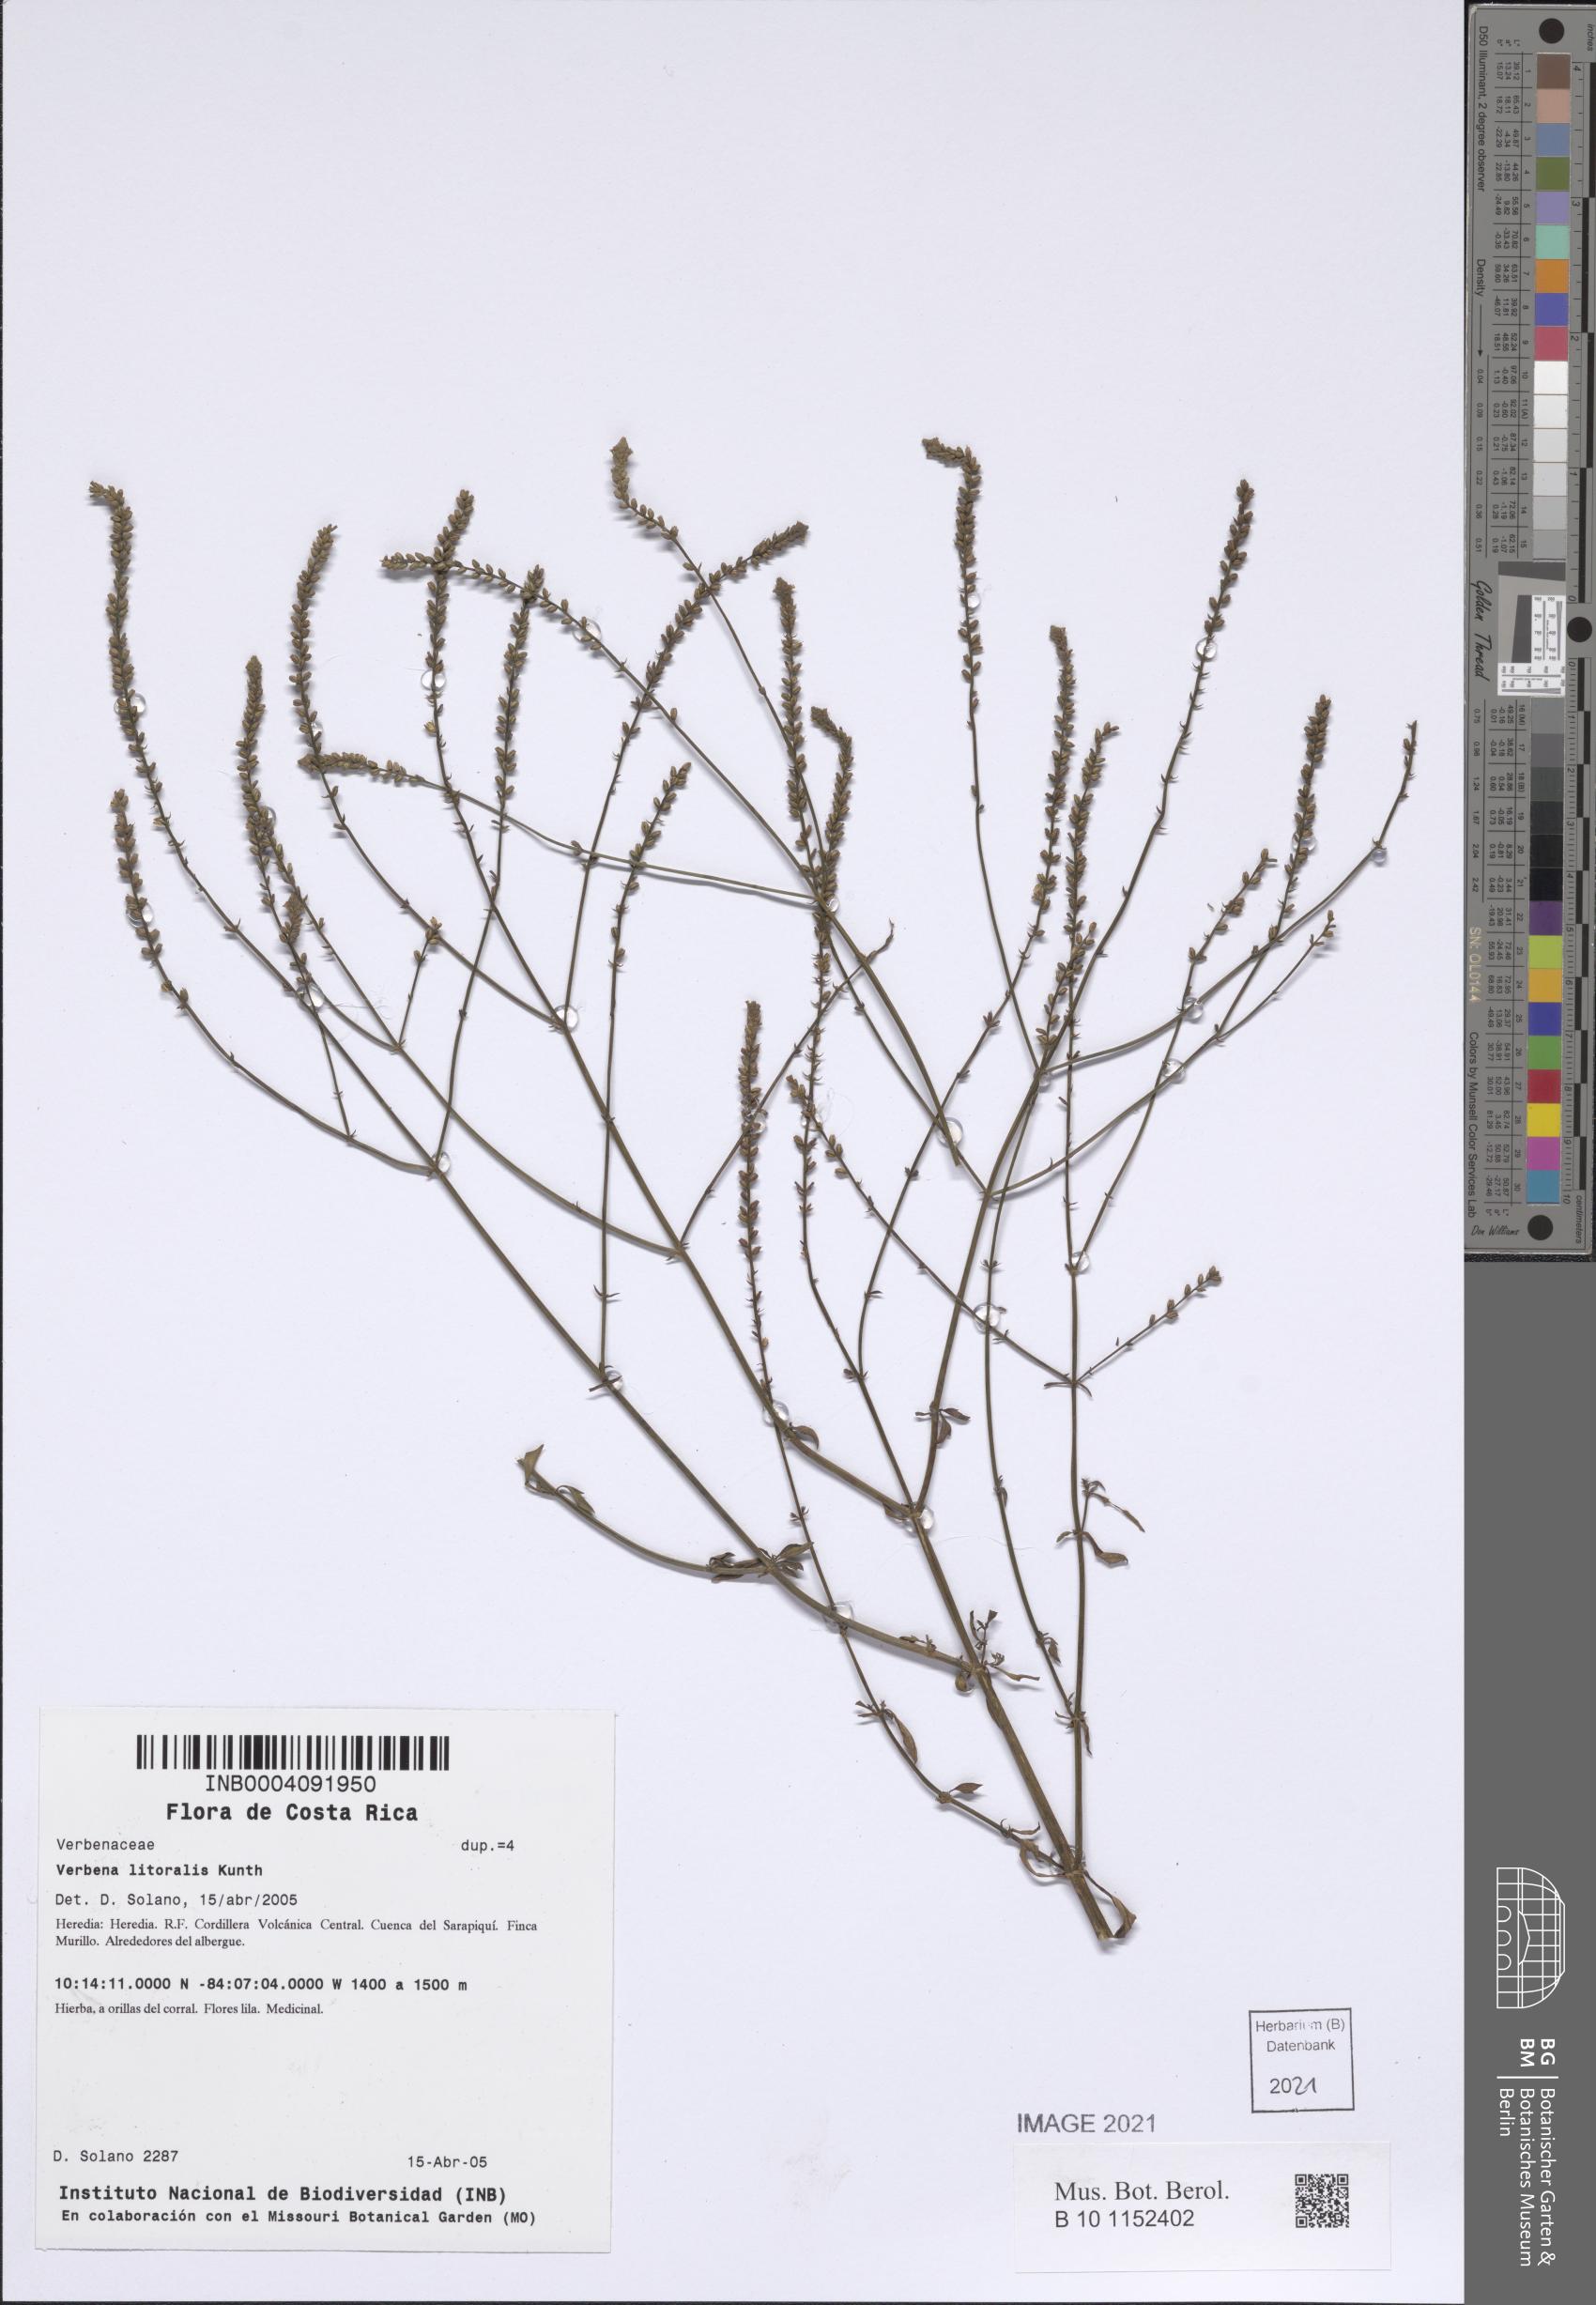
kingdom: Plantae
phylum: Tracheophyta
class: Magnoliopsida
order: Lamiales
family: Verbenaceae
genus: Verbena
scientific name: Verbena litoralis
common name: Seashore vervain
